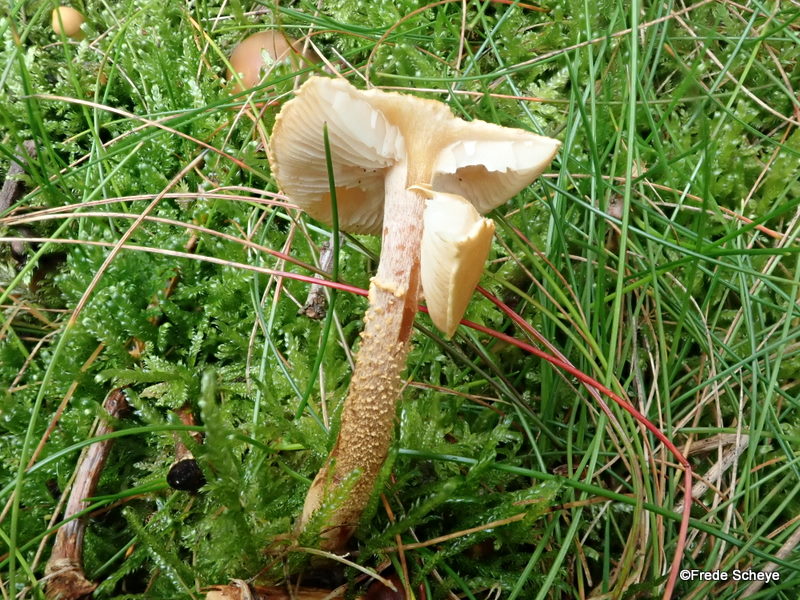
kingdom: Fungi
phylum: Basidiomycota
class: Agaricomycetes
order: Agaricales
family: Tricholomataceae
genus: Cystoderma
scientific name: Cystoderma amianthinum
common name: okkergul grynhat
